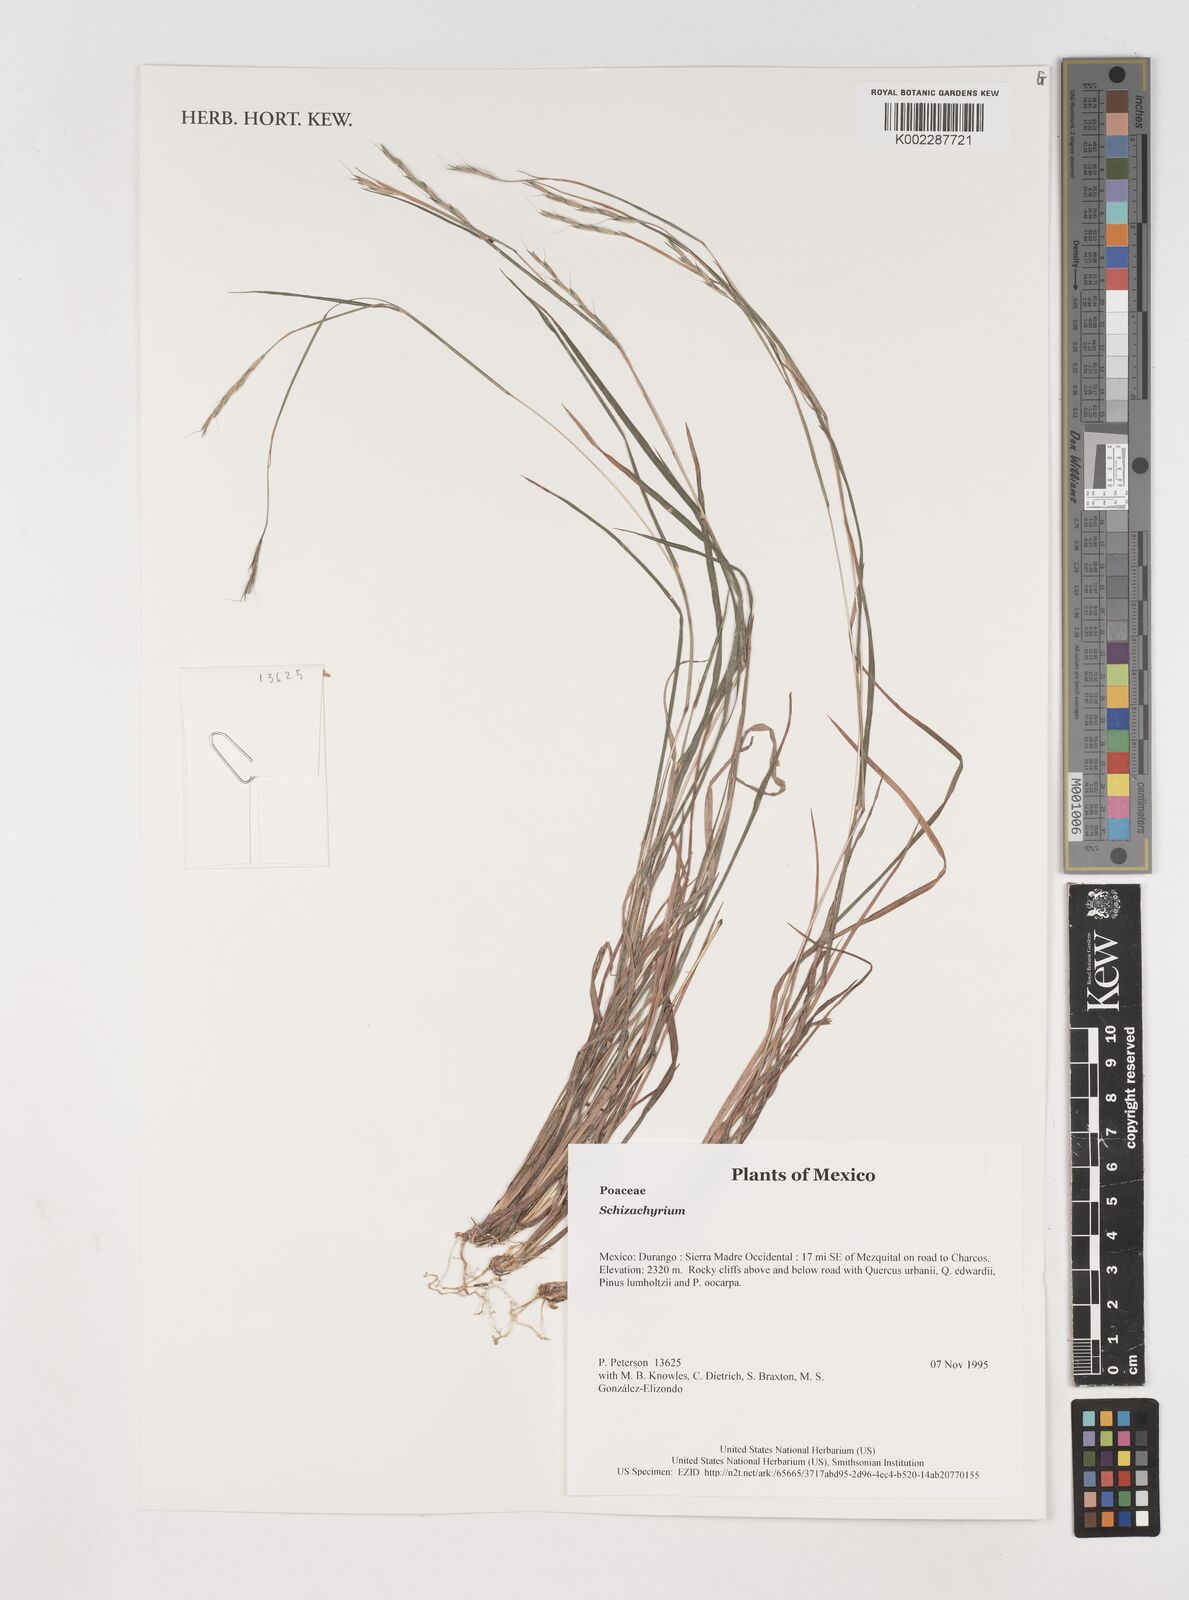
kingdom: Plantae
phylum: Tracheophyta
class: Liliopsida
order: Poales
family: Poaceae
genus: Schizachyrium
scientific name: Schizachyrium
